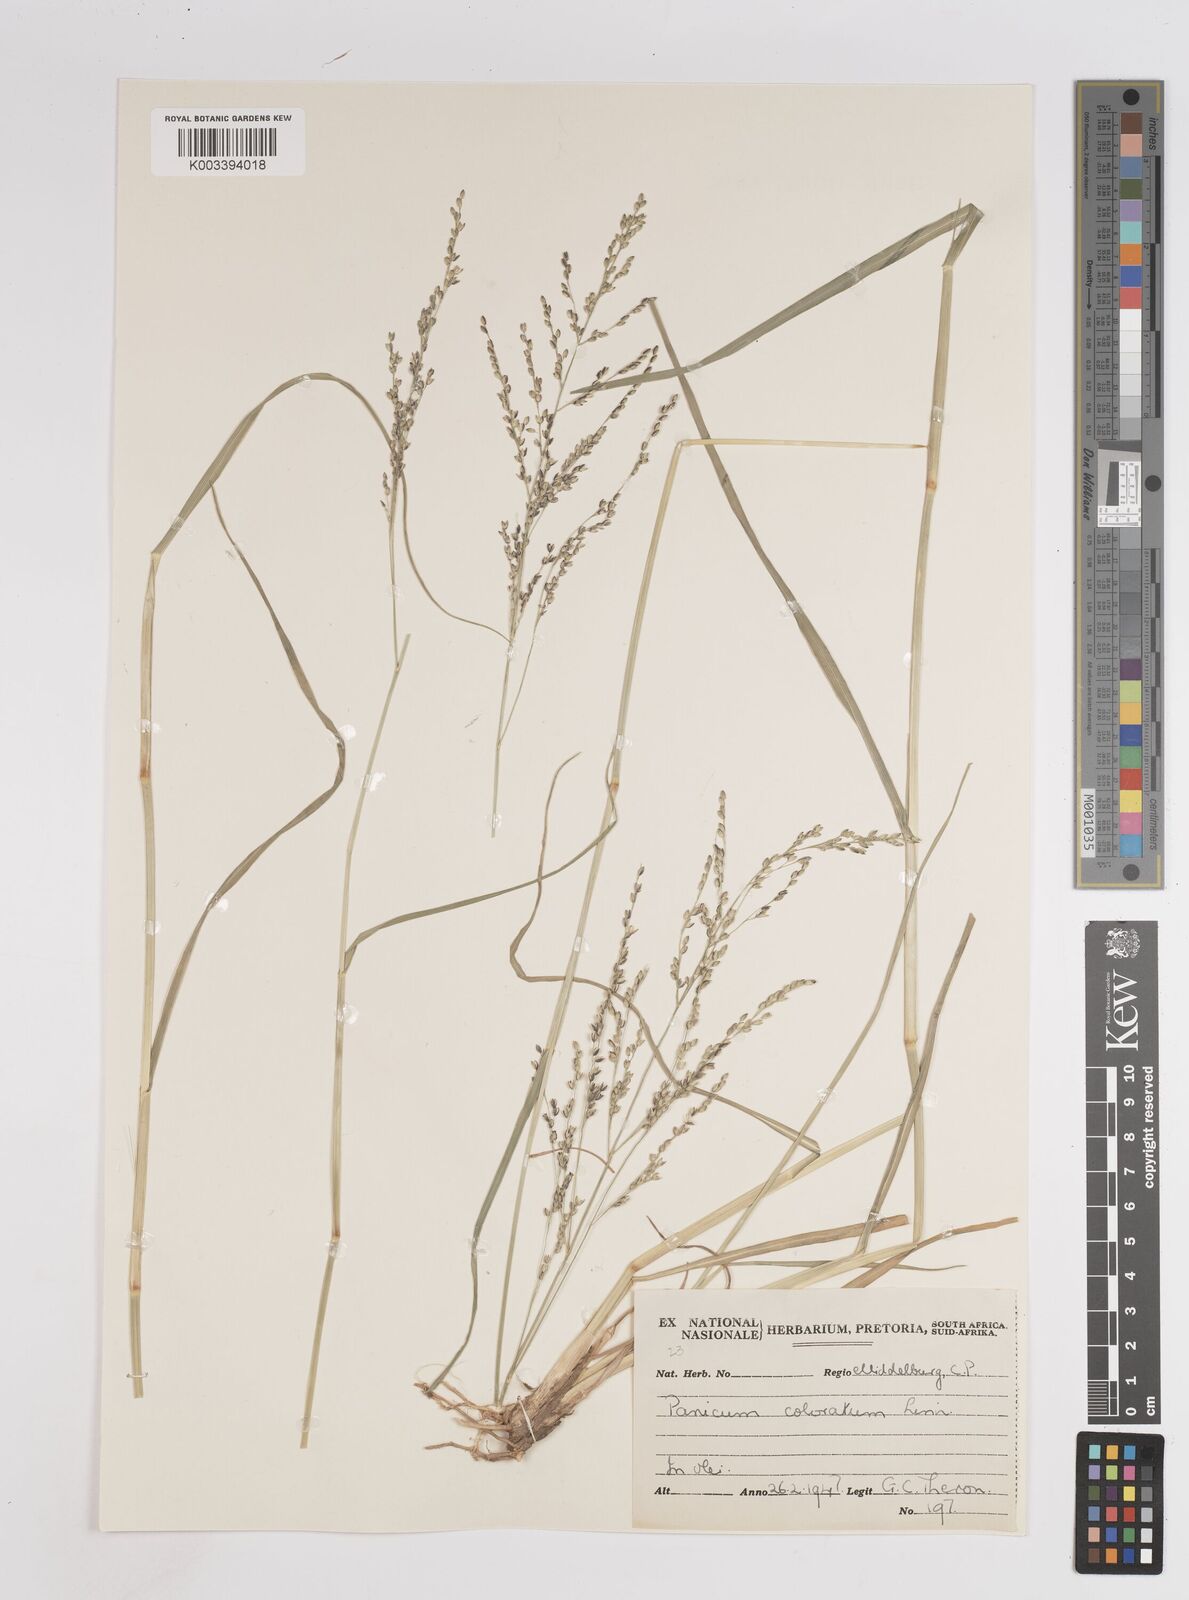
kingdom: Plantae
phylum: Tracheophyta
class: Liliopsida
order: Poales
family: Poaceae
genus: Panicum
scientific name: Panicum coloratum
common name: Kleingrass
